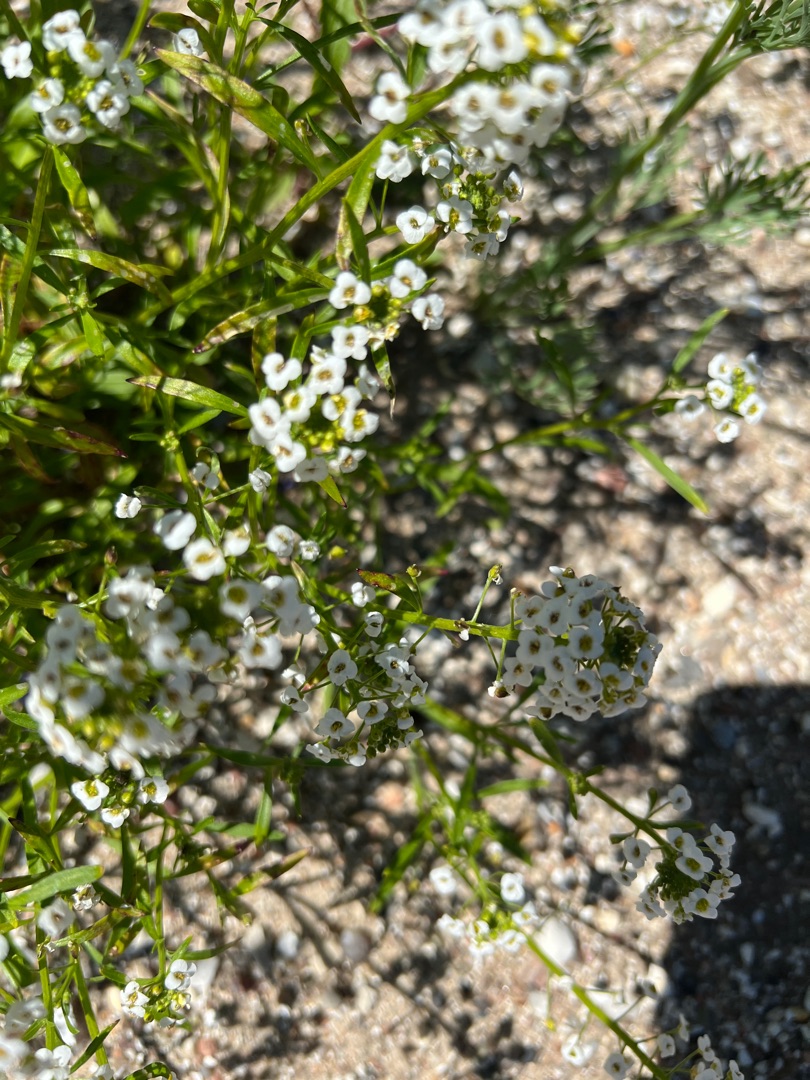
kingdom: Plantae
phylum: Tracheophyta
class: Magnoliopsida
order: Brassicales
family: Brassicaceae
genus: Lobularia
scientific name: Lobularia maritima
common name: Biblomme
